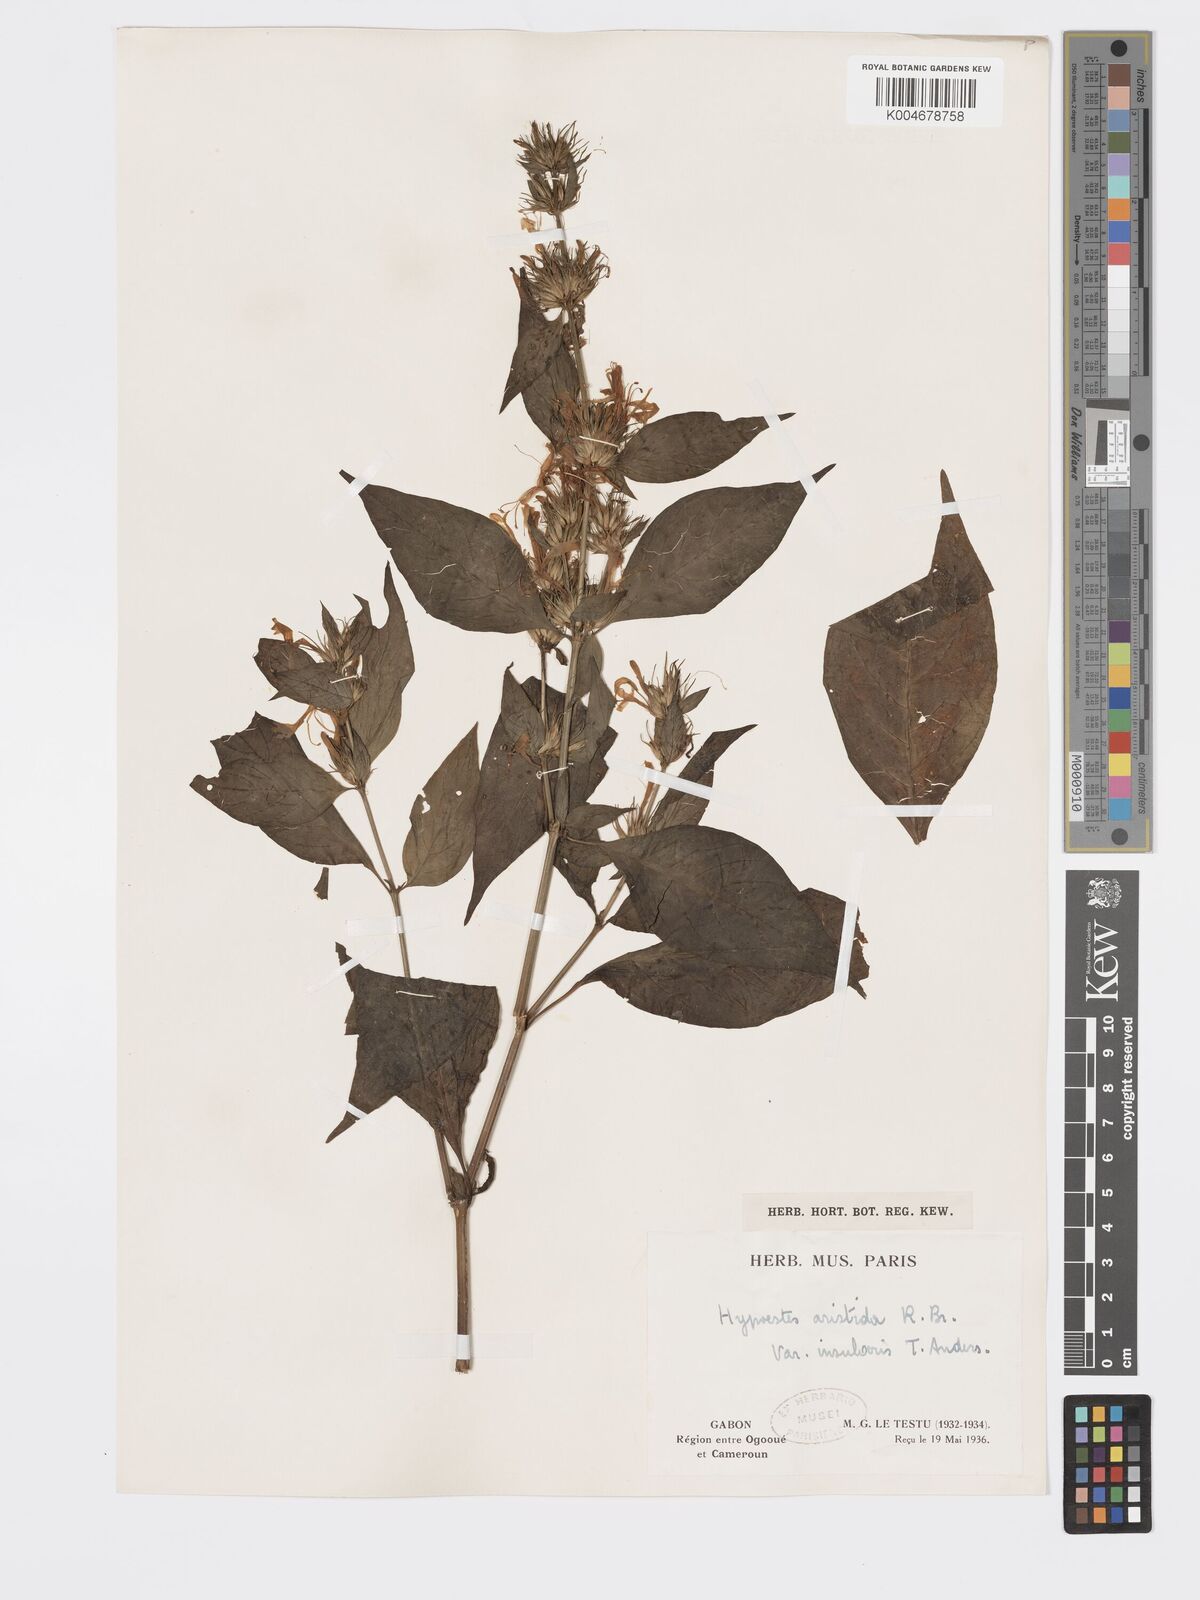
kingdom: Plantae
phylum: Tracheophyta
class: Magnoliopsida
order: Lamiales
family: Acanthaceae
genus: Hypoestes
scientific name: Hypoestes aristata
